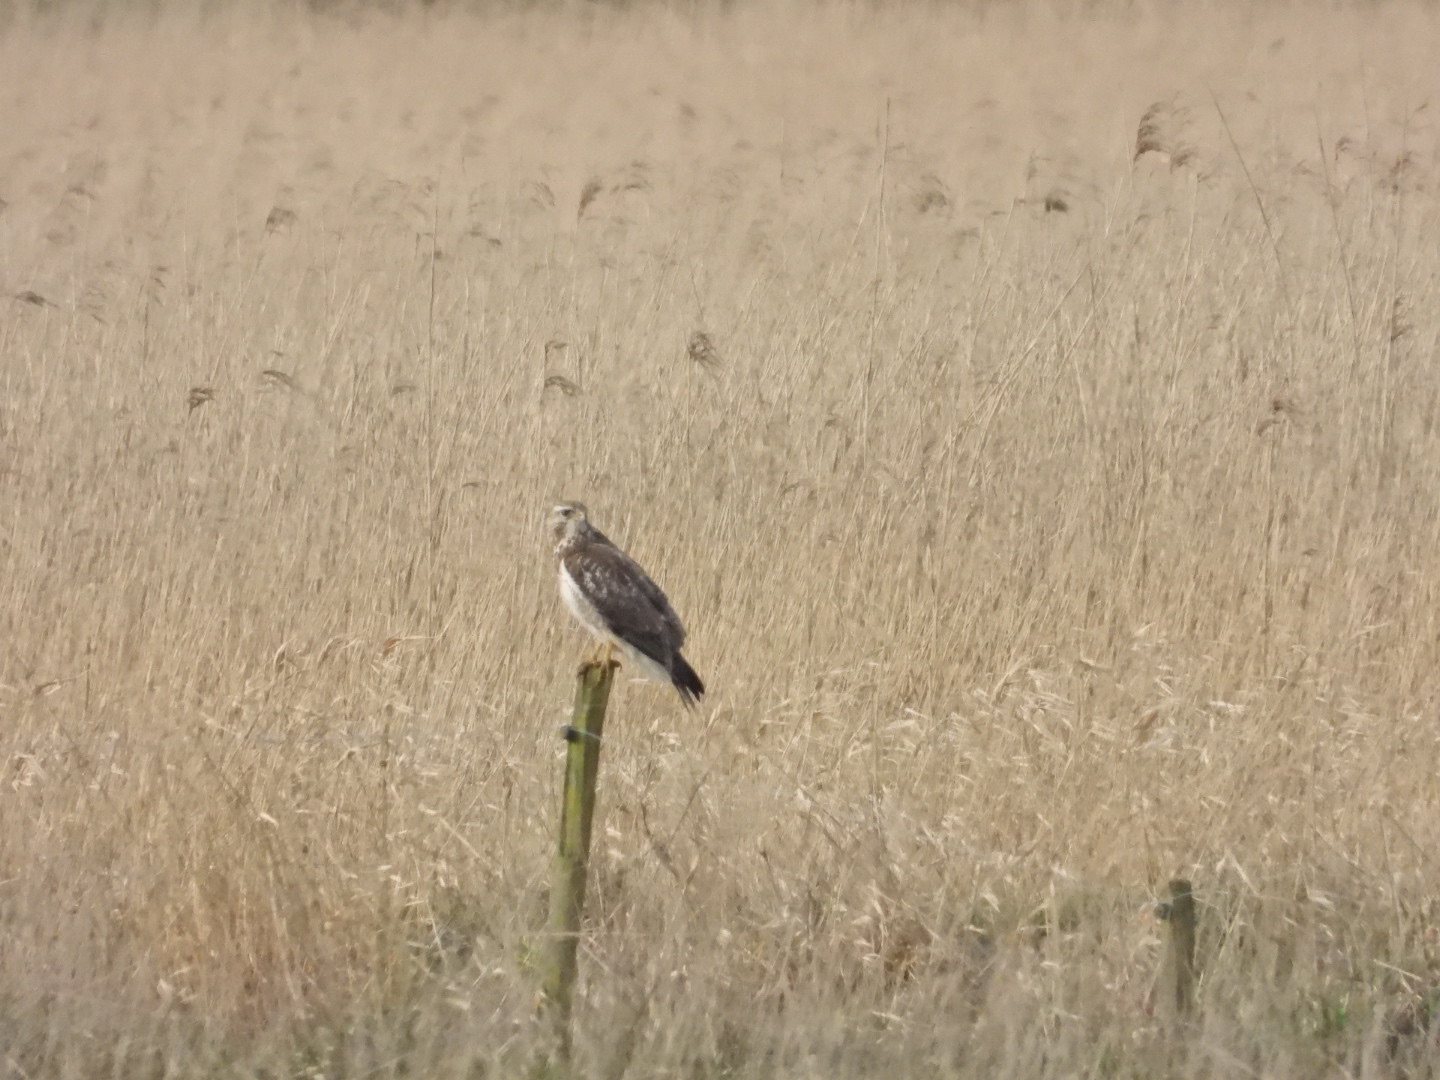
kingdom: Animalia
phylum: Chordata
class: Aves
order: Accipitriformes
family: Accipitridae
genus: Buteo
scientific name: Buteo buteo
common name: Musvåge
